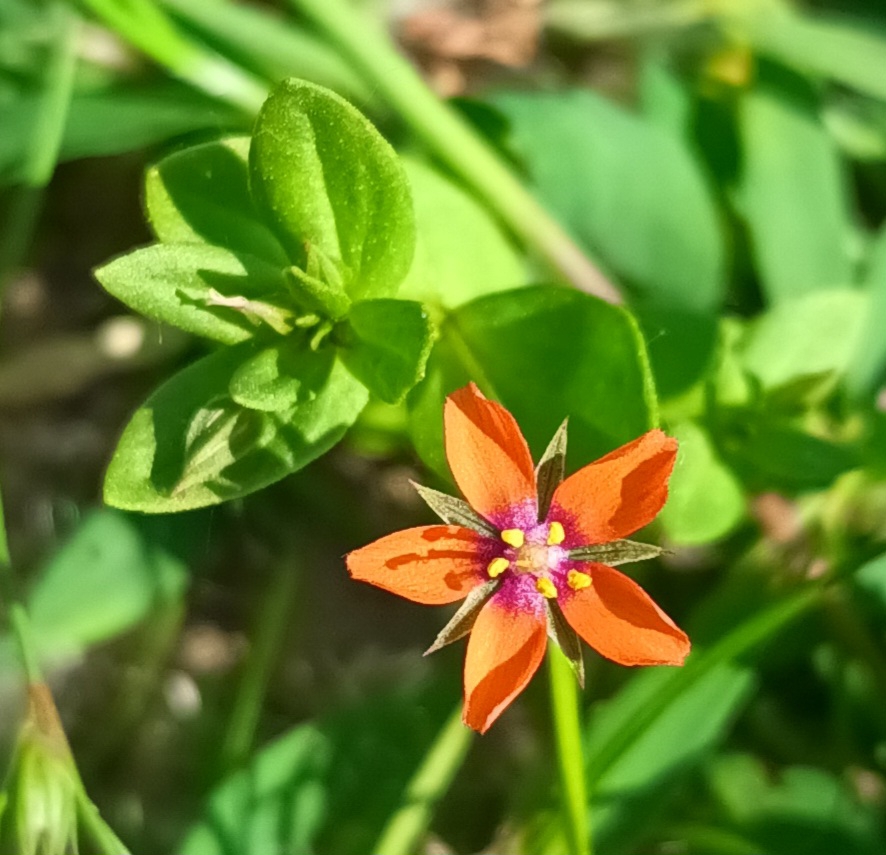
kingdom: Plantae
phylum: Tracheophyta
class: Magnoliopsida
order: Ericales
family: Primulaceae
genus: Lysimachia
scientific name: Lysimachia arvensis
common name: Rød arve
